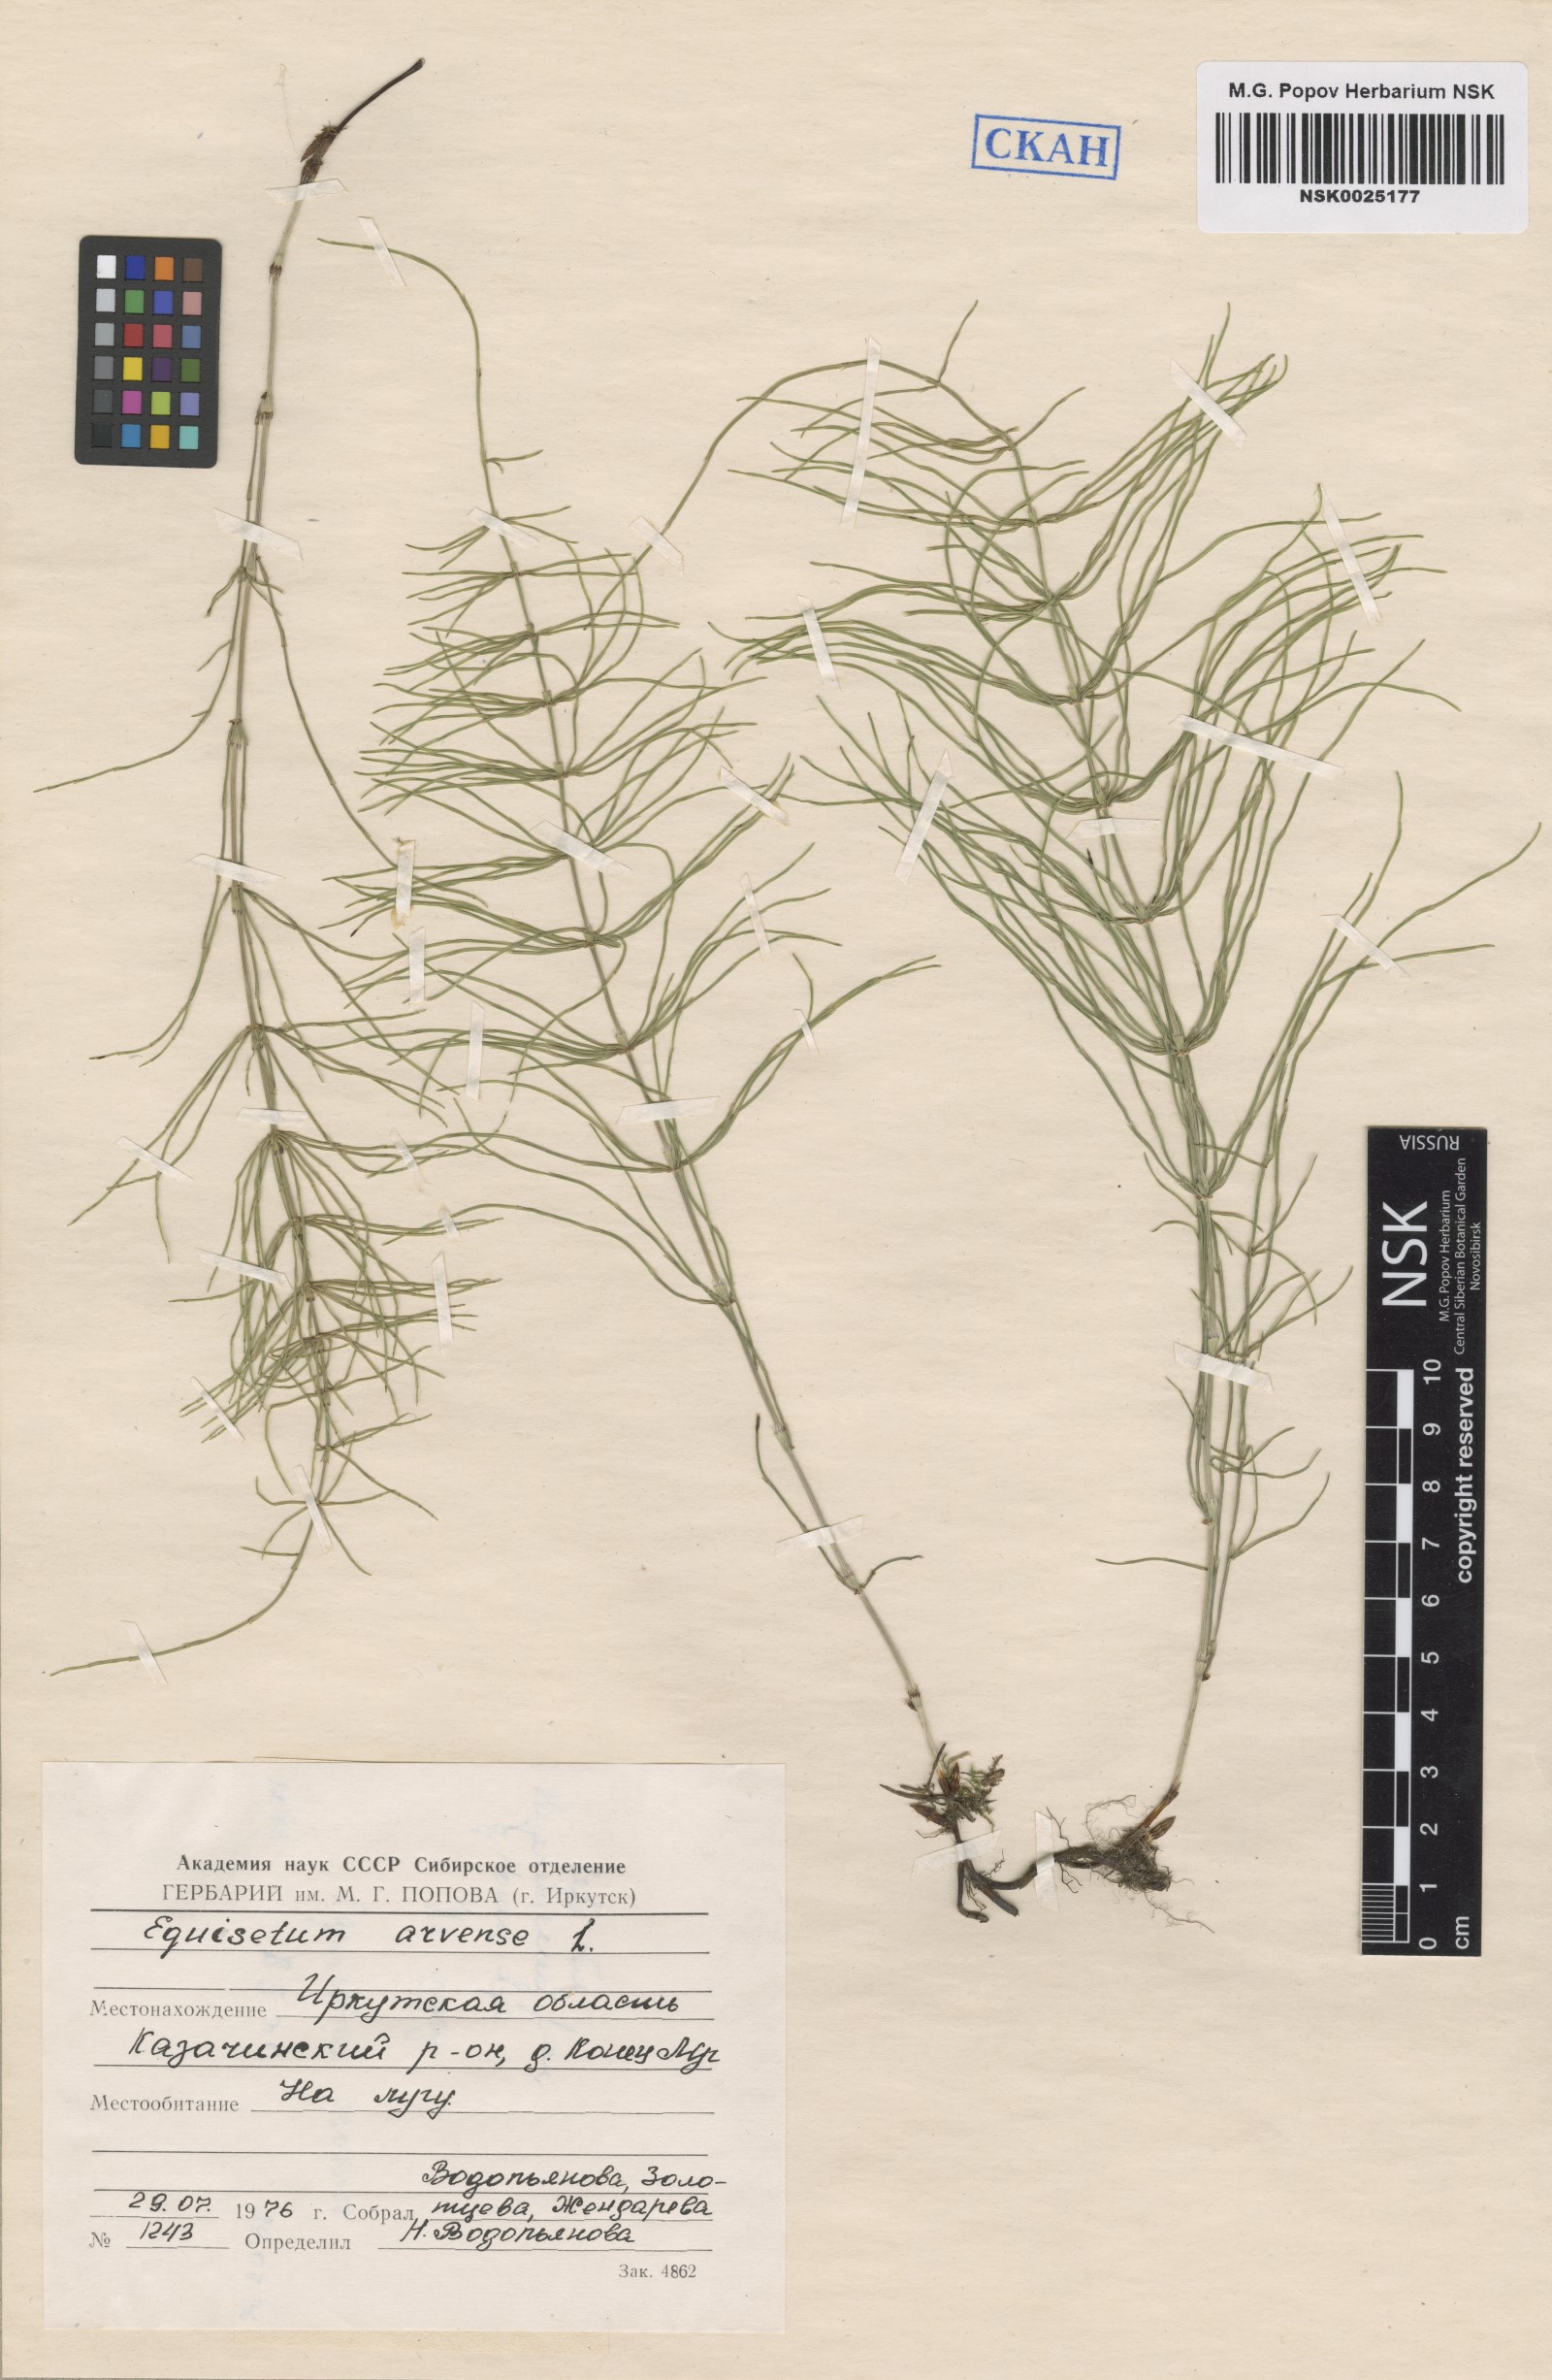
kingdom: Plantae
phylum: Tracheophyta
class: Polypodiopsida
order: Equisetales
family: Equisetaceae
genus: Equisetum
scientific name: Equisetum arvense
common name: Field horsetail
